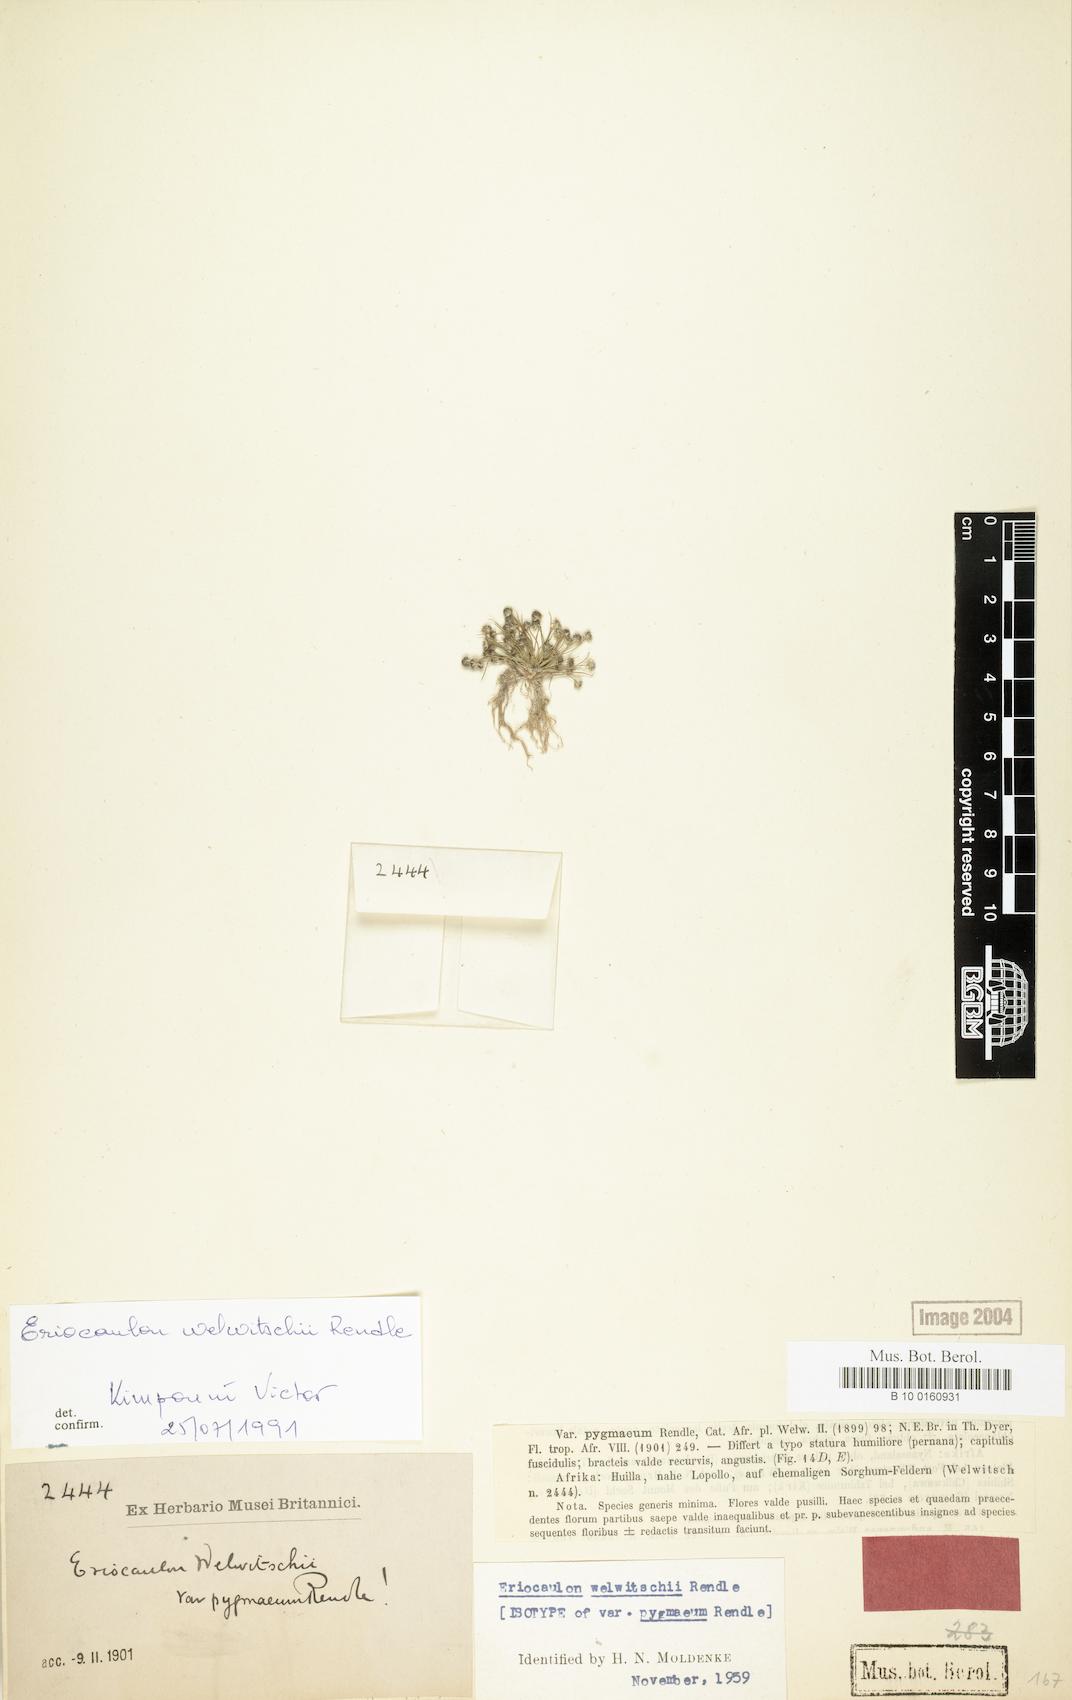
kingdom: Plantae
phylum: Tracheophyta
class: Liliopsida
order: Poales
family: Eriocaulaceae
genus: Eriocaulon
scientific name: Eriocaulon welwitschii
